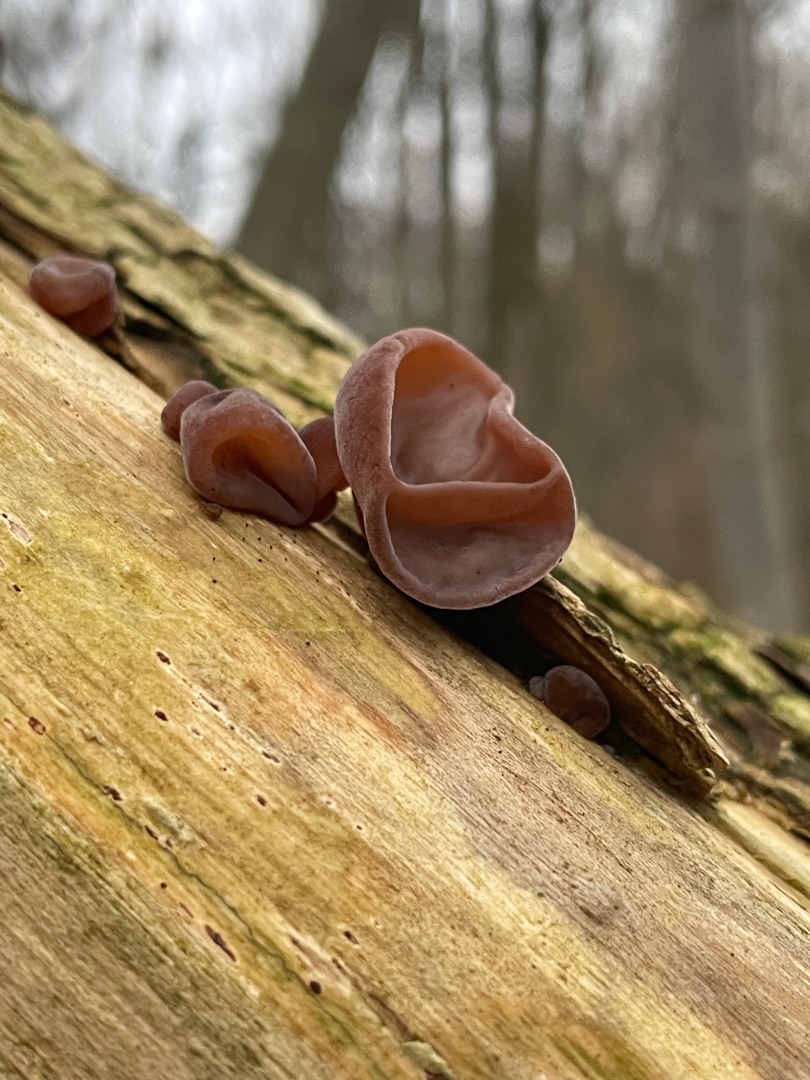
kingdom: Fungi
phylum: Basidiomycota
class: Agaricomycetes
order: Auriculariales
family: Auriculariaceae
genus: Auricularia
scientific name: Auricularia auricula-judae
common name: Almindelig judasøre
